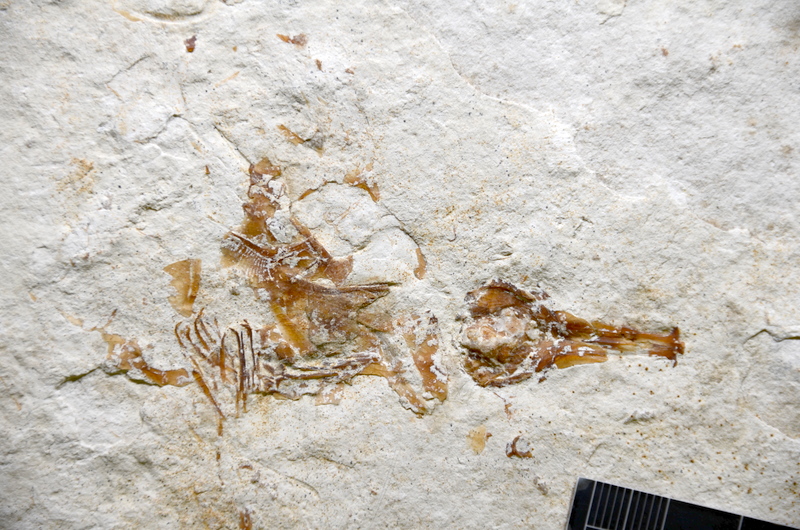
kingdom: Animalia
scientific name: Animalia
